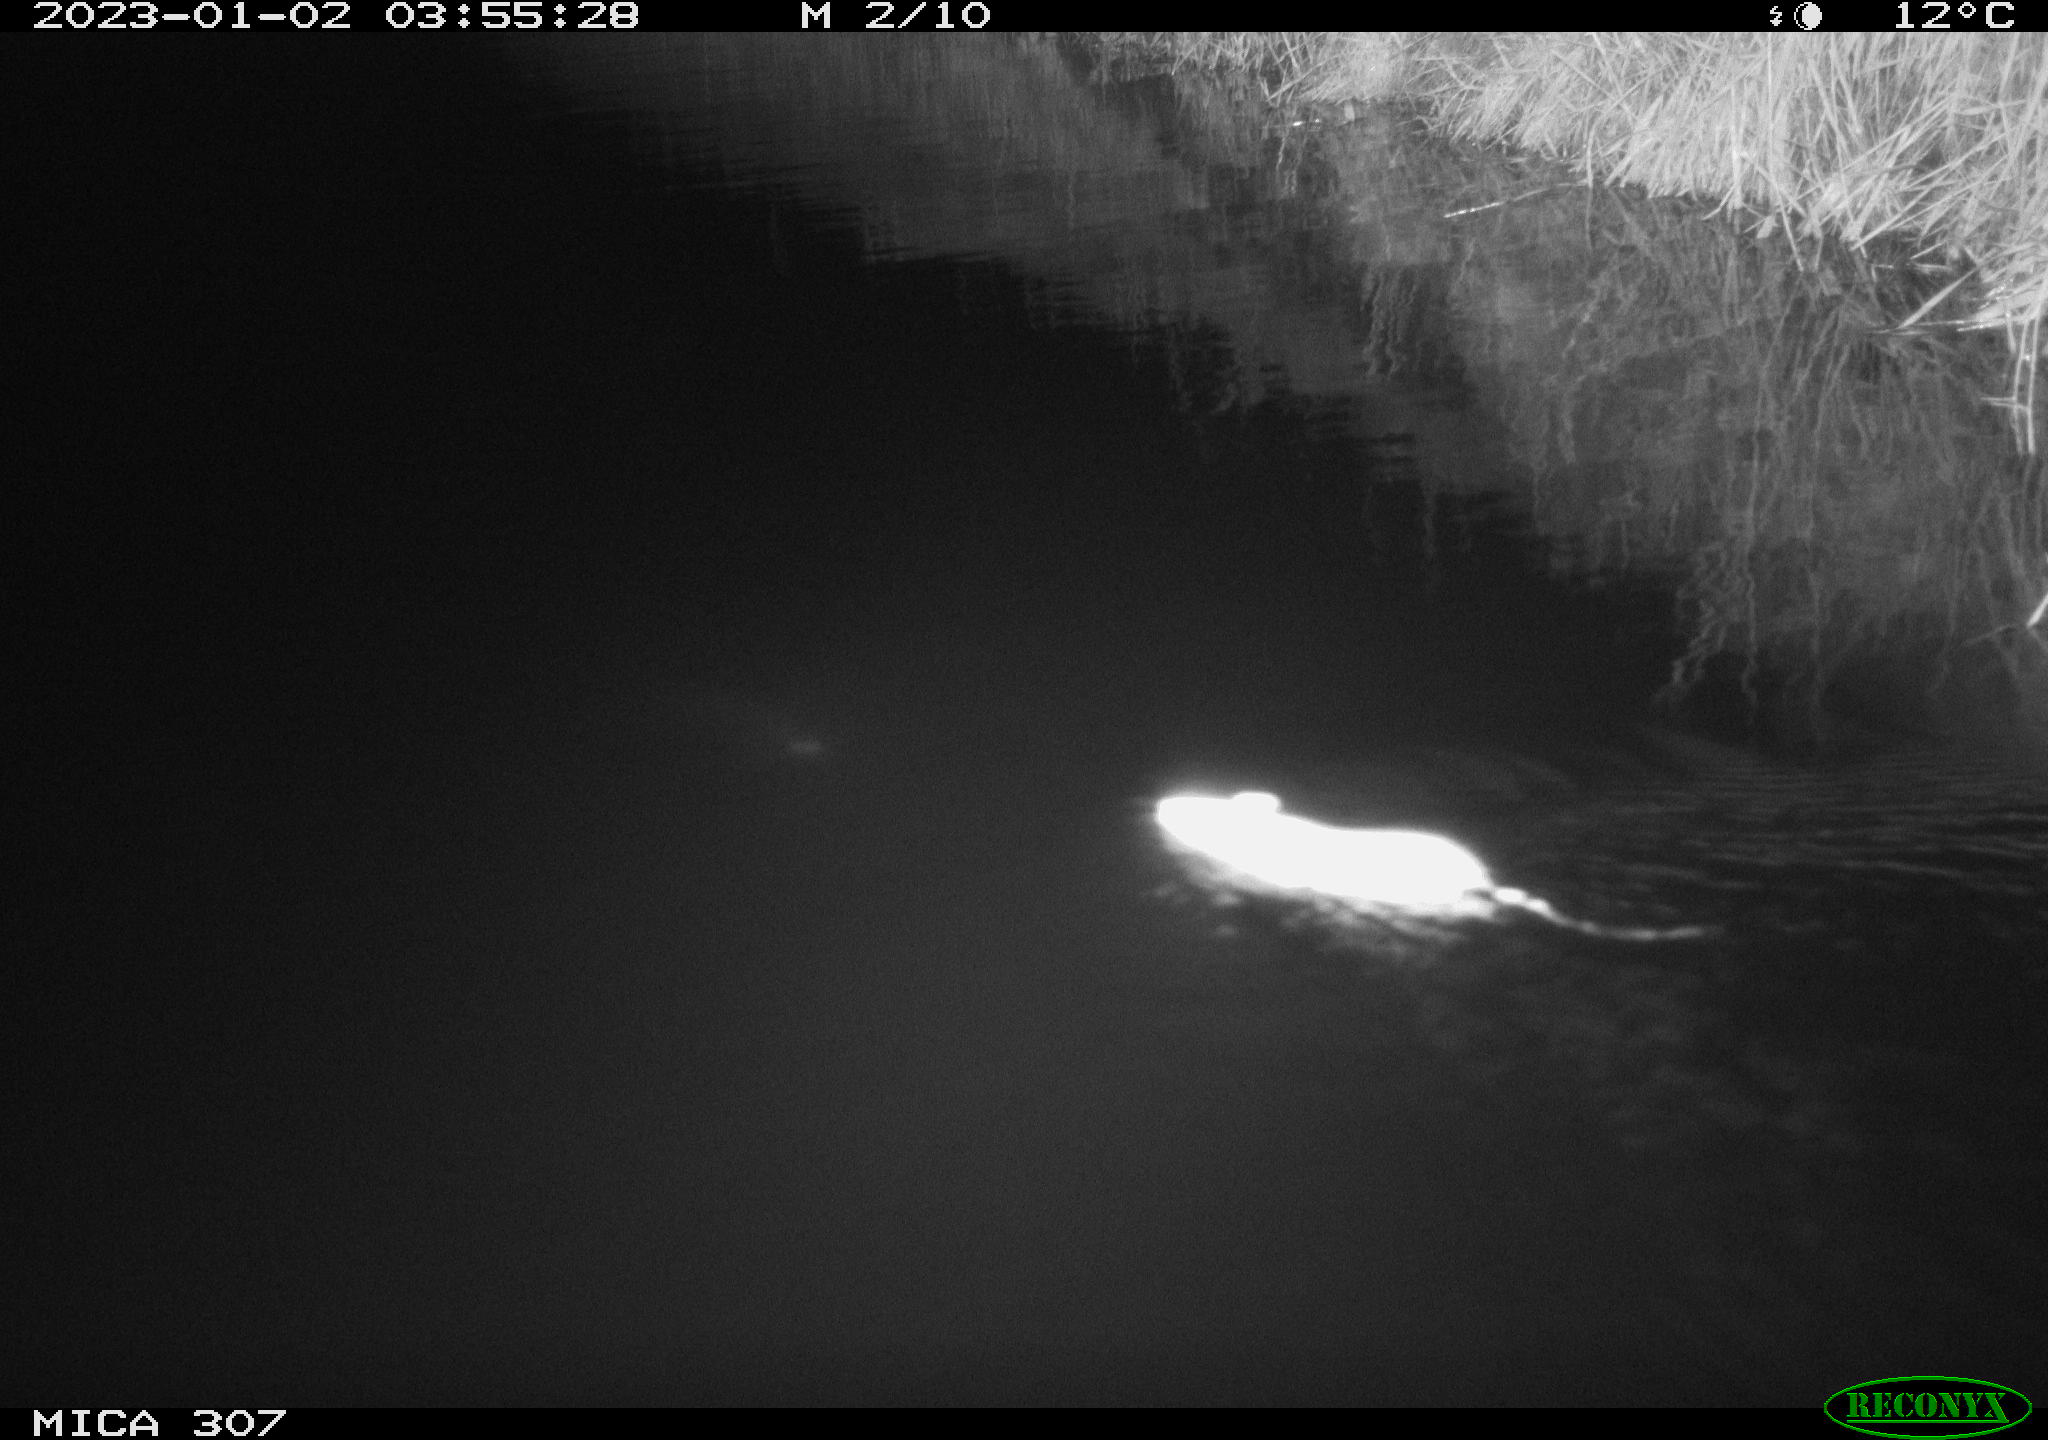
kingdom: Animalia
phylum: Chordata
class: Mammalia
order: Rodentia
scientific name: Rodentia
